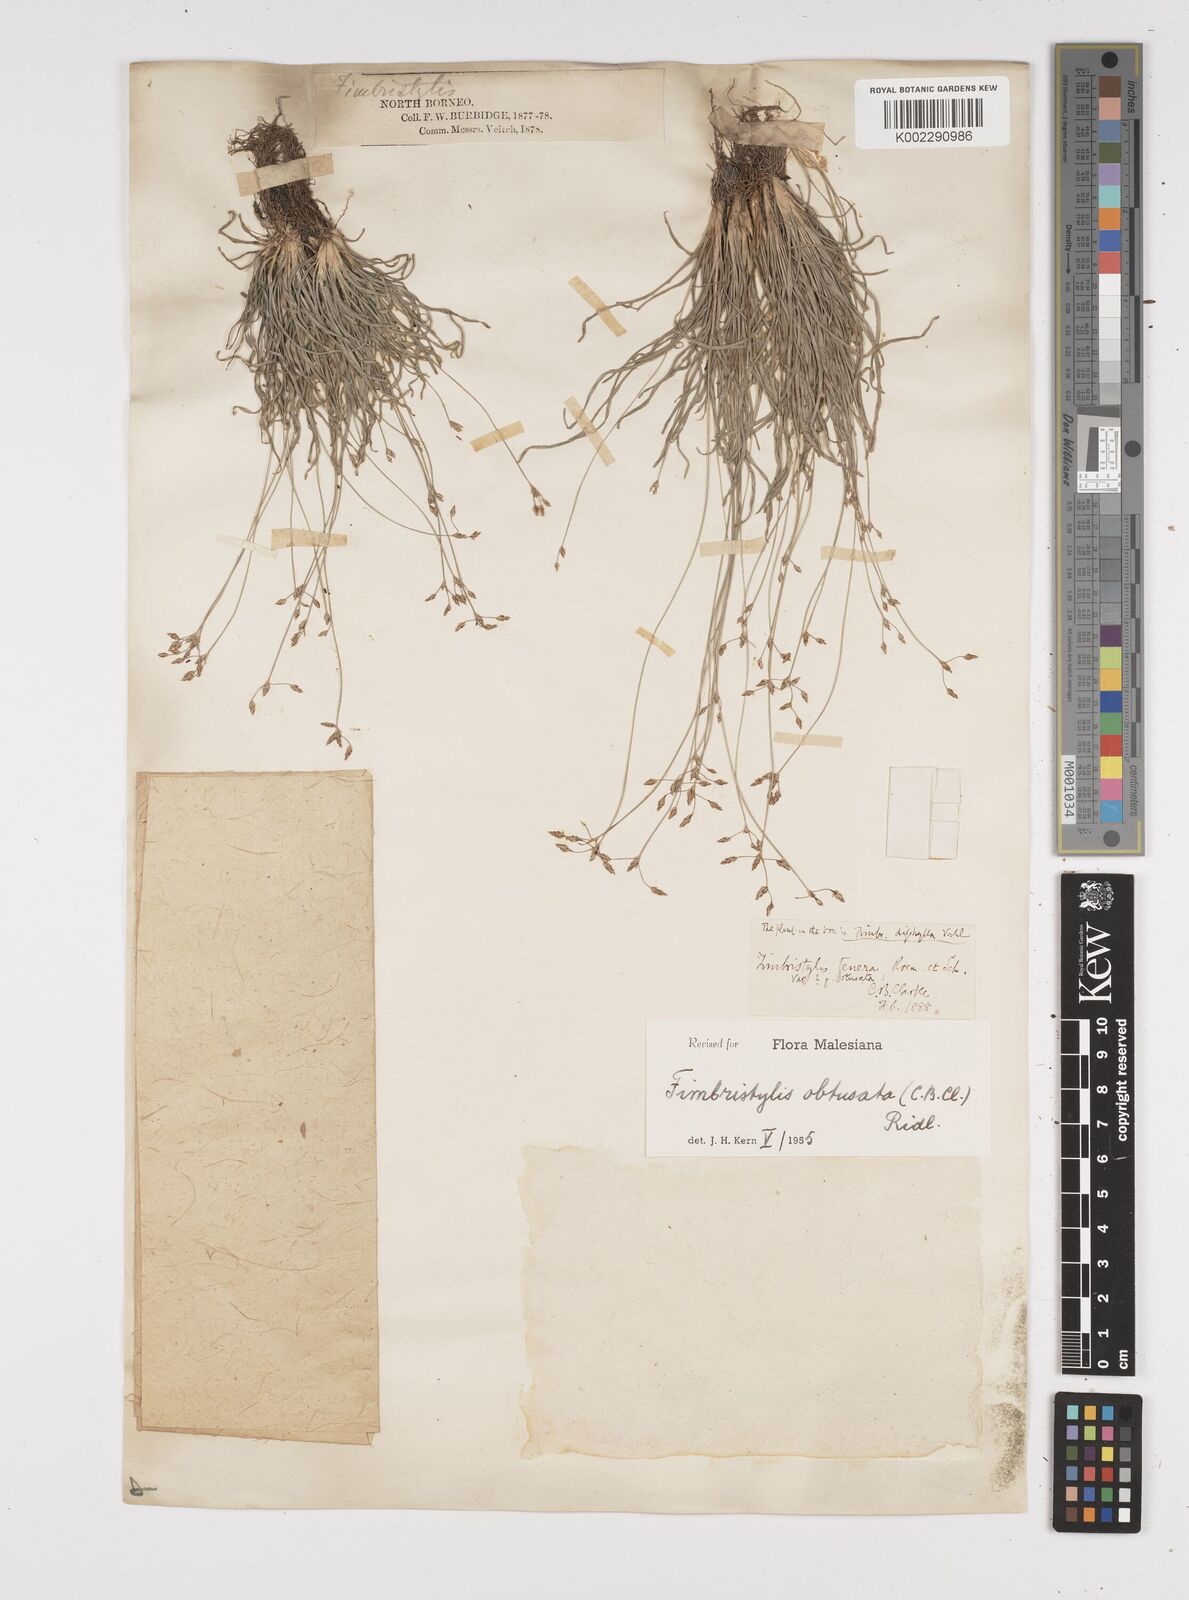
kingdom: Plantae
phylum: Tracheophyta
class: Liliopsida
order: Poales
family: Cyperaceae
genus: Fimbristylis
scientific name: Fimbristylis obtusata
